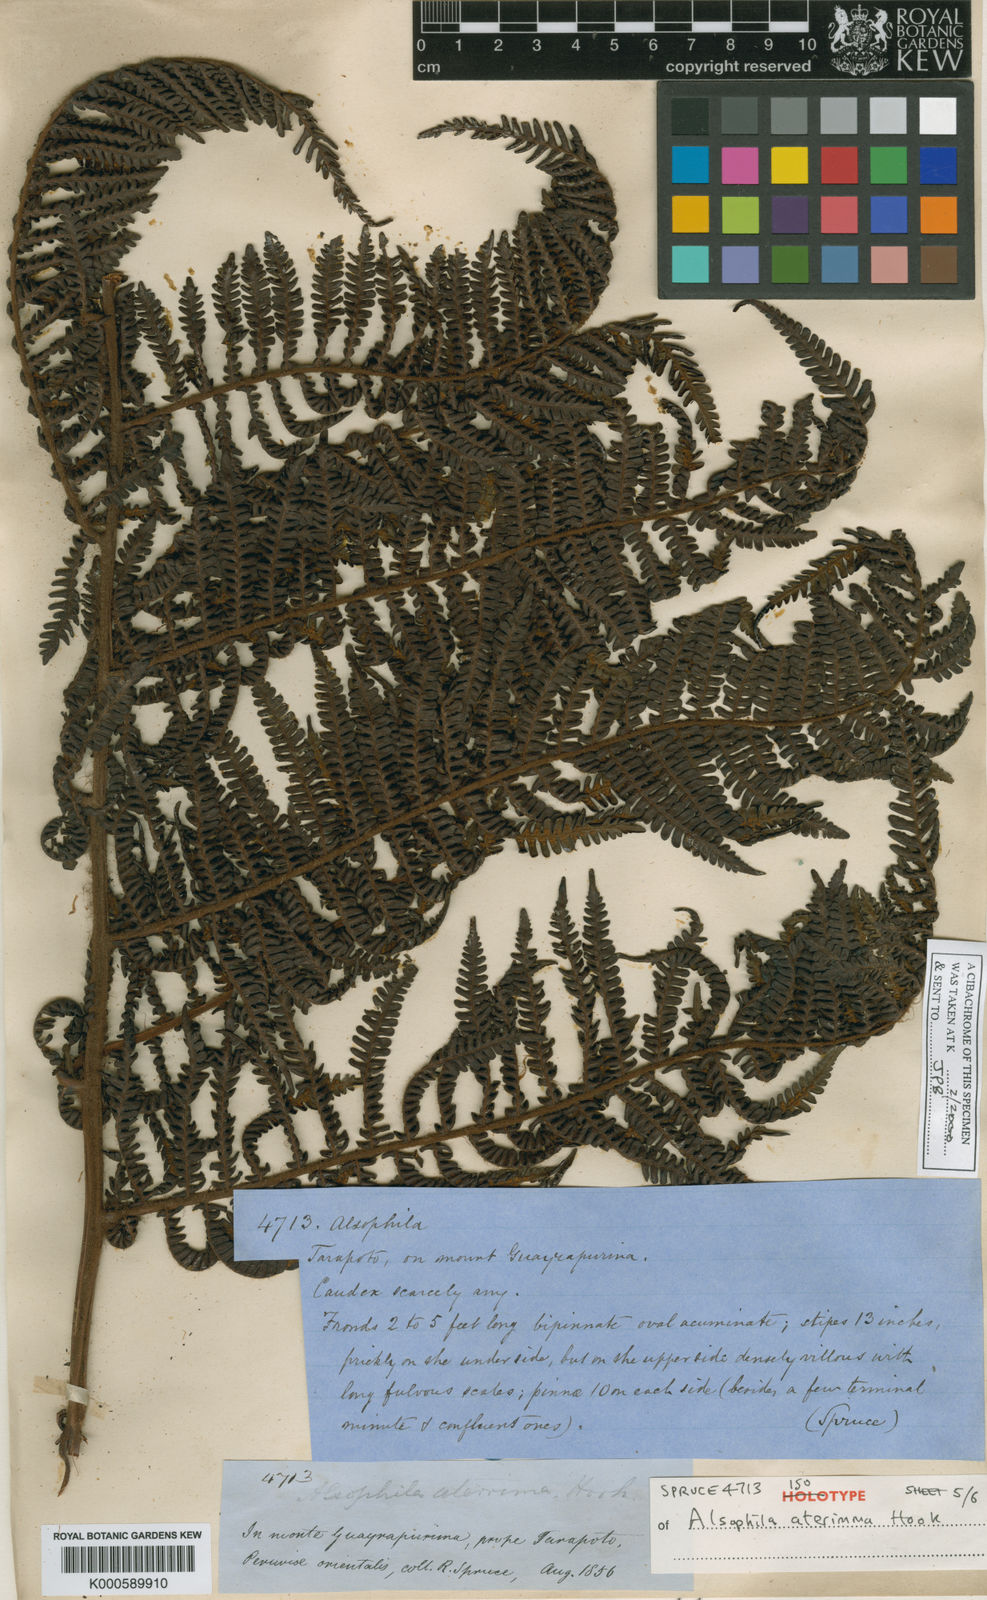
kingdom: Plantae
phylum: Tracheophyta
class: Polypodiopsida
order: Cyatheales
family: Cyatheaceae
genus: Cyathea
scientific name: Cyathea aterrima
